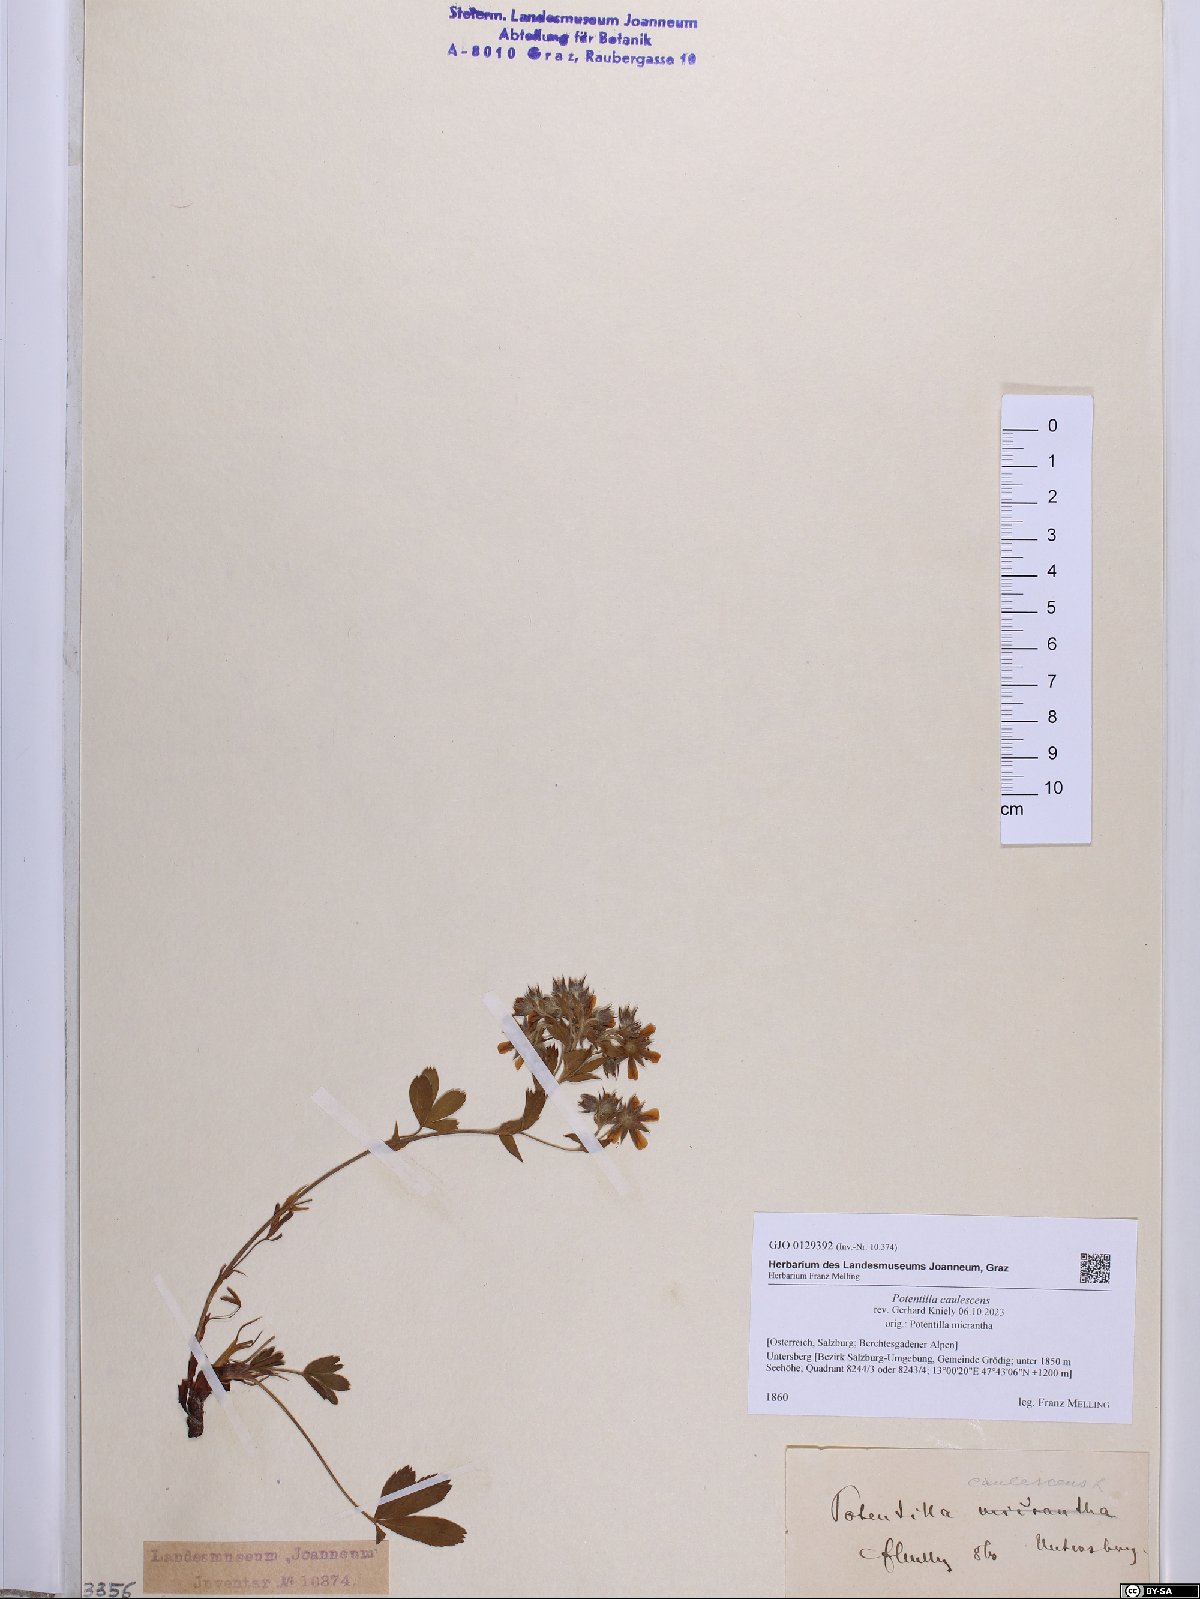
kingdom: Plantae
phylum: Tracheophyta
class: Magnoliopsida
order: Rosales
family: Rosaceae
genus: Potentilla
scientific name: Potentilla caulescens
